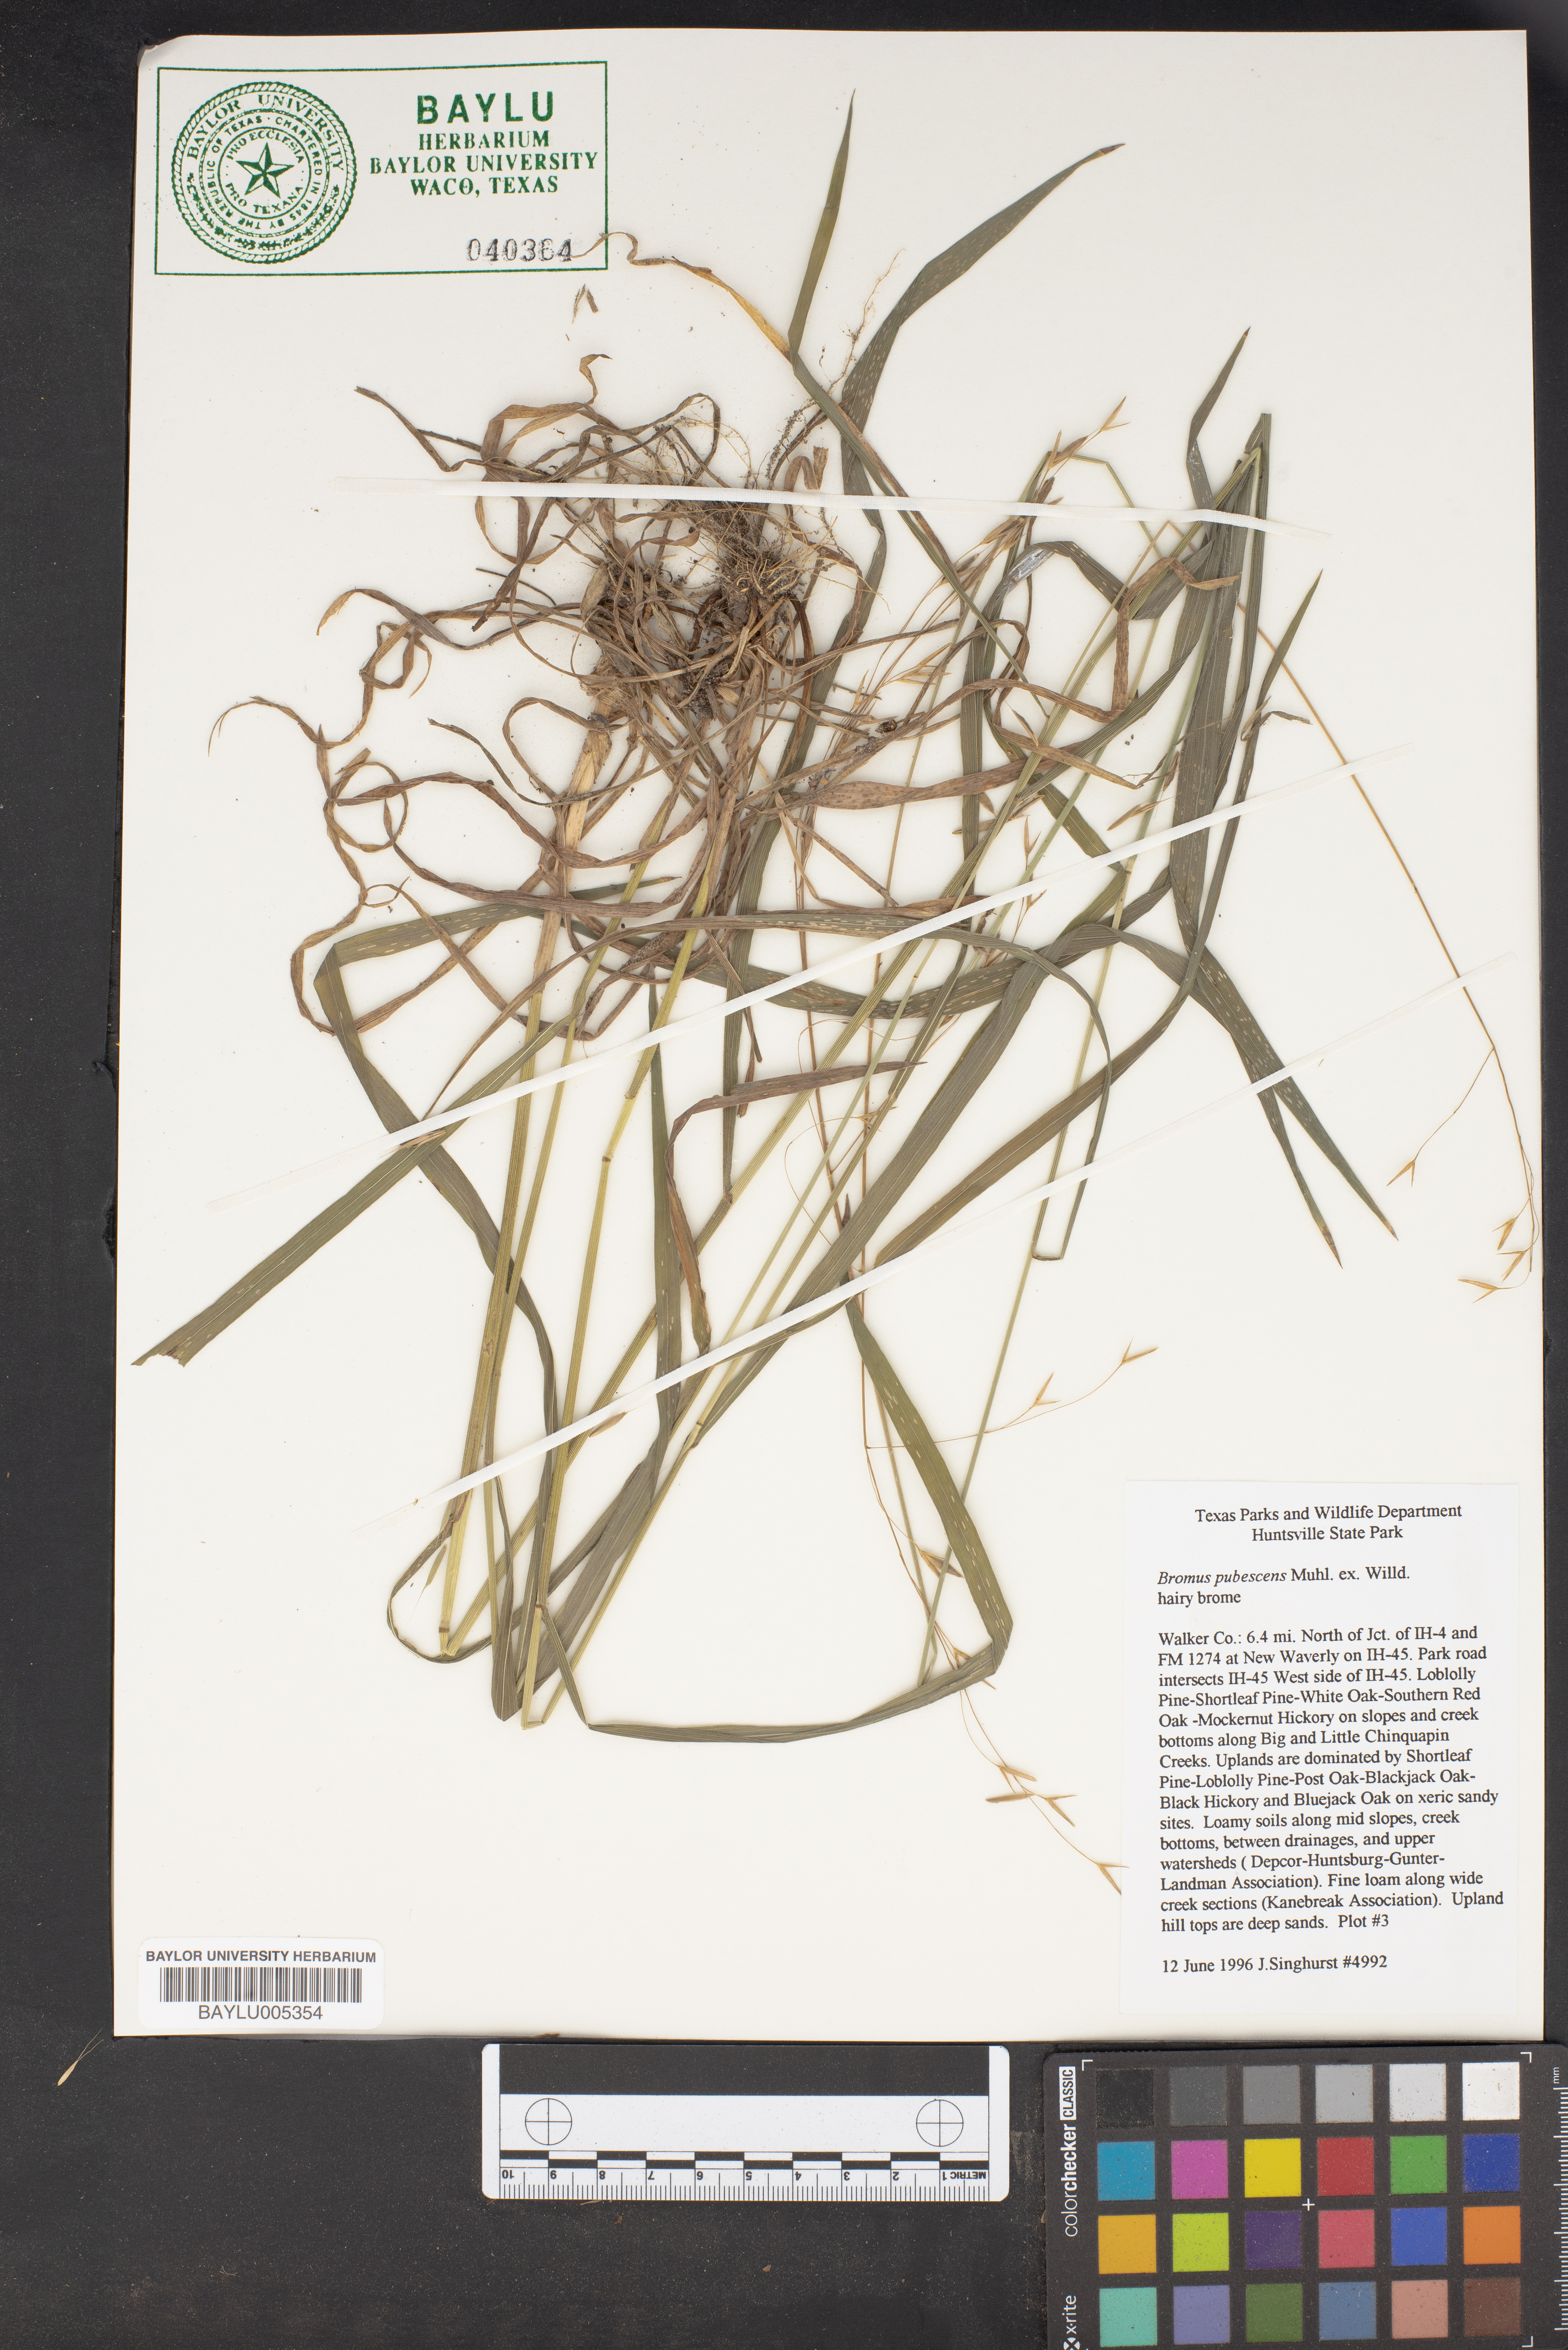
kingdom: Plantae
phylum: Tracheophyta
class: Liliopsida
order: Poales
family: Poaceae
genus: Bromus
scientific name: Bromus pubescens
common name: Hairy wood brome grass
